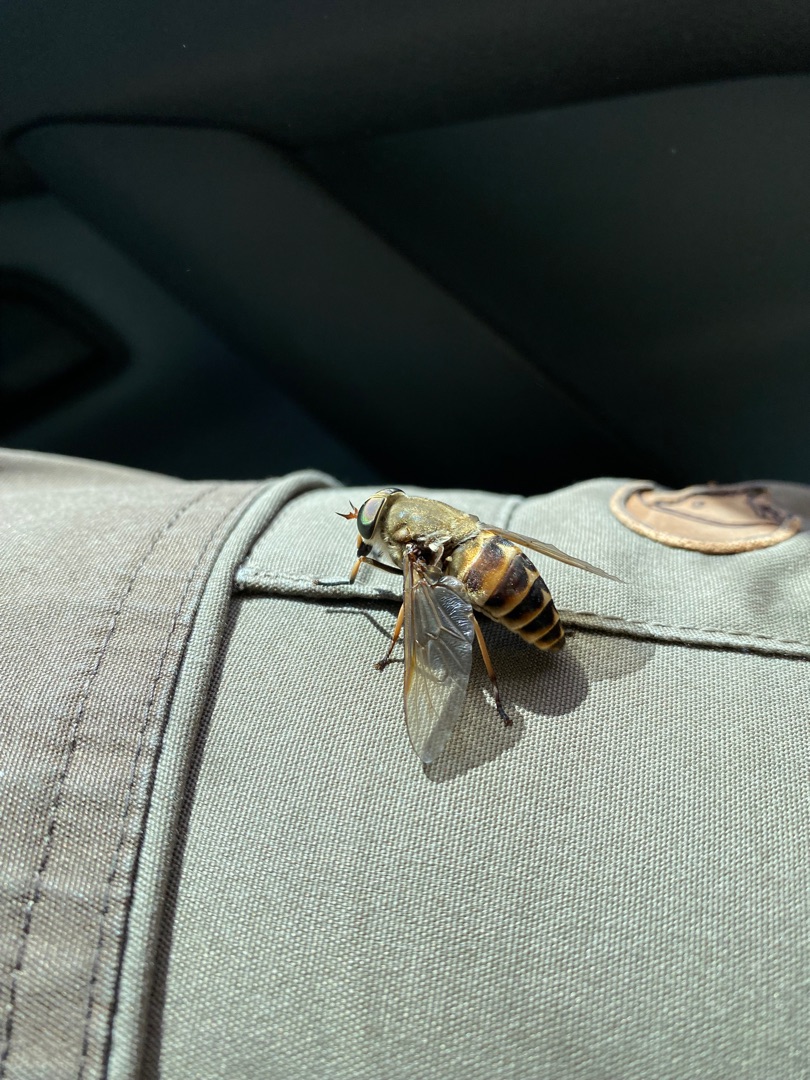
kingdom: Animalia
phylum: Arthropoda
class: Insecta
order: Diptera
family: Tabanidae
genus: Tabanus
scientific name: Tabanus sudeticus
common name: Hesteklæg
